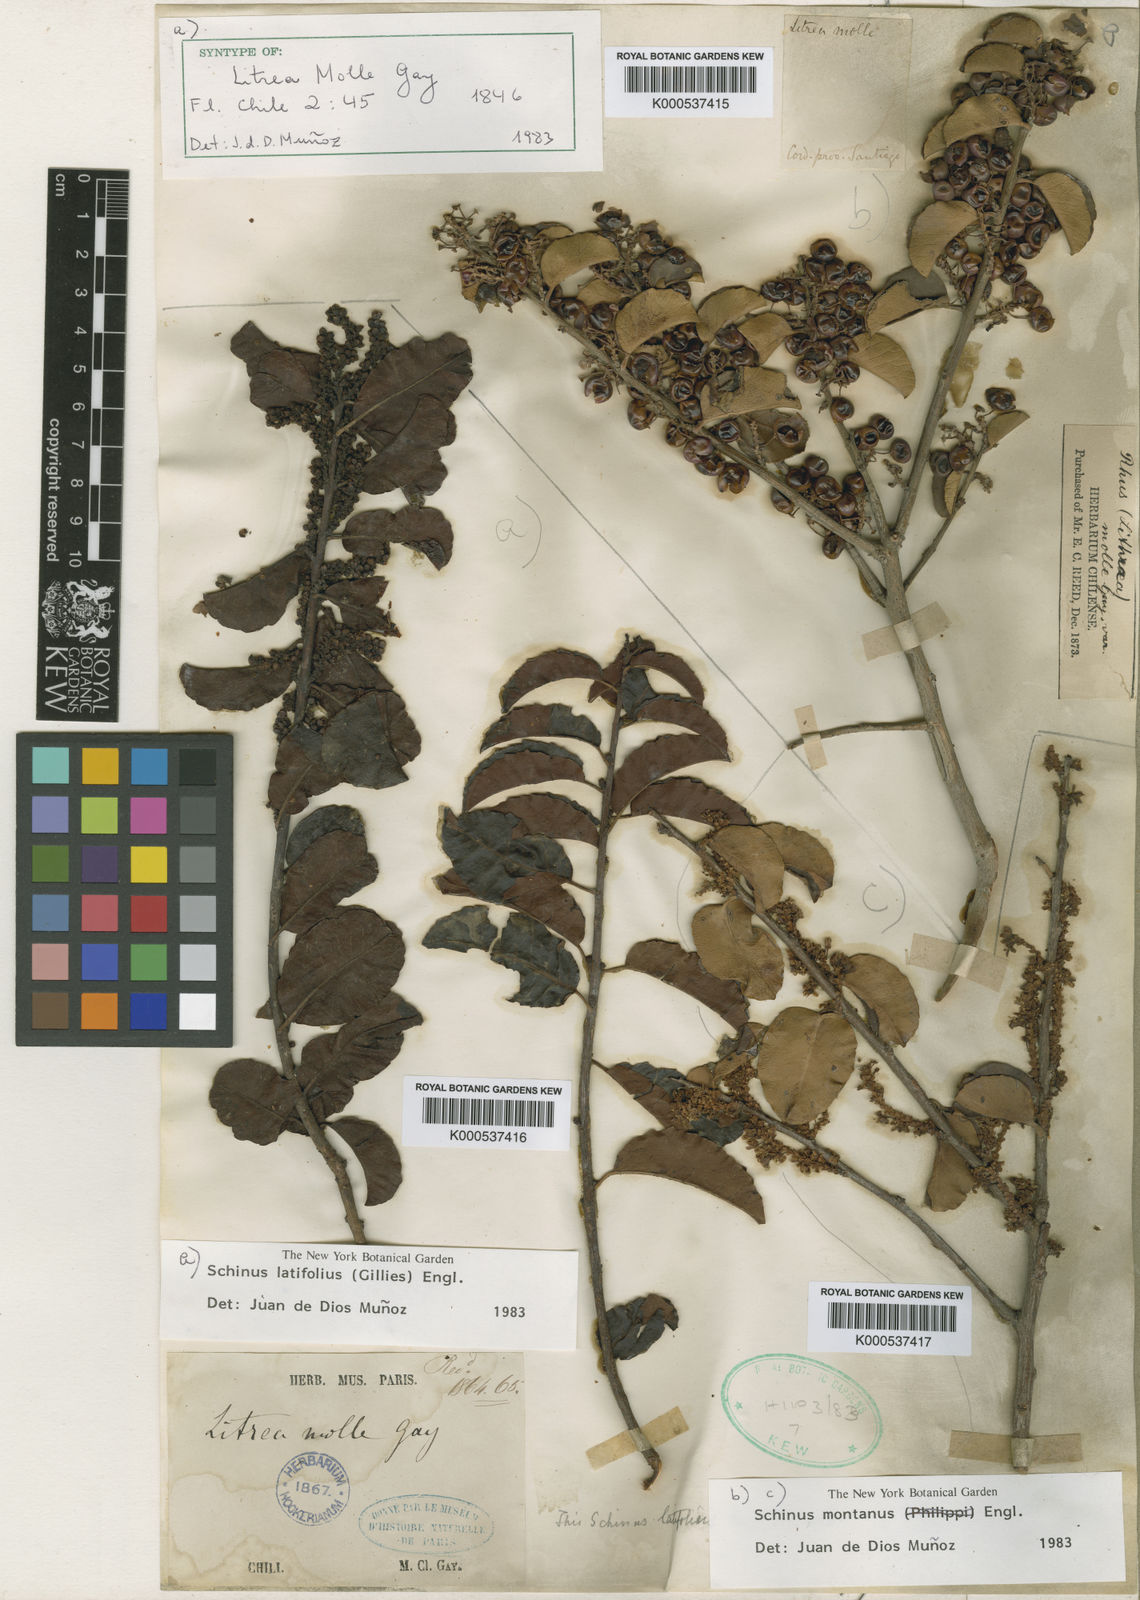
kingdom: Plantae
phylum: Tracheophyta
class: Magnoliopsida
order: Sapindales
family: Anacardiaceae
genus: Schinus
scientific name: Schinus latifolia
